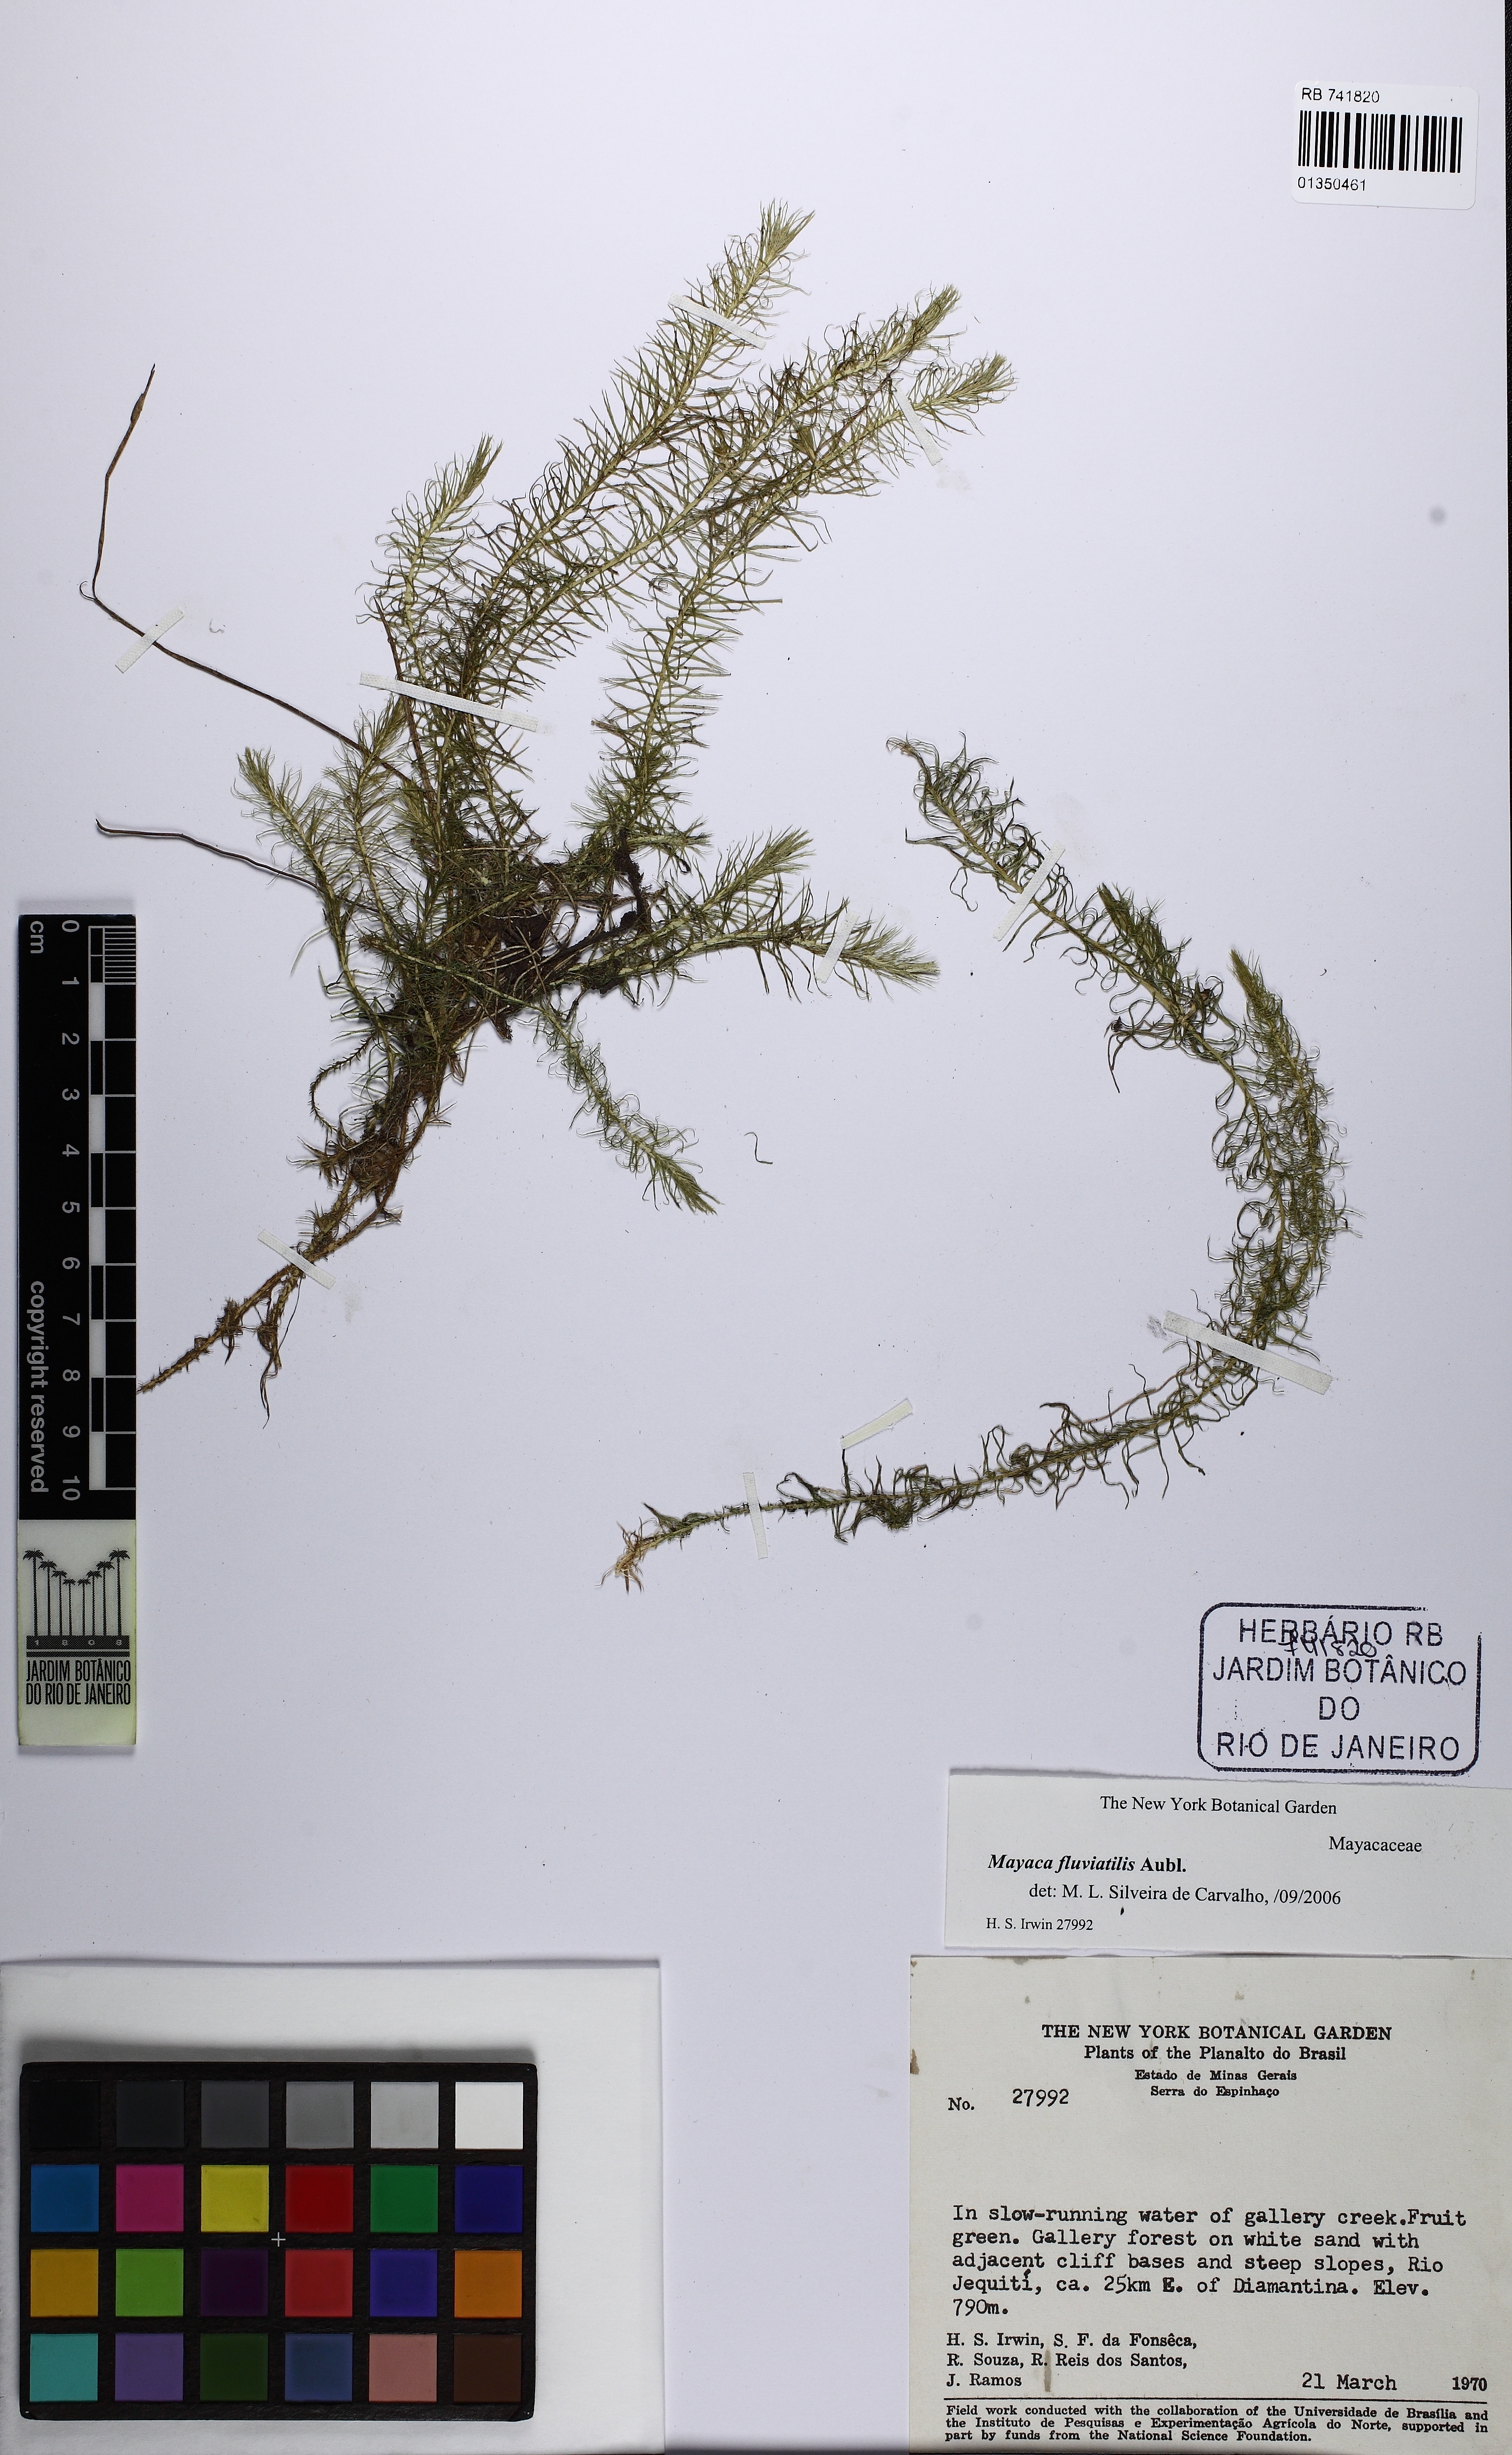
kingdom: Plantae
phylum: Tracheophyta
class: Liliopsida
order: Poales
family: Mayacaceae
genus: Mayaca
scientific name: Mayaca fluviatilis
